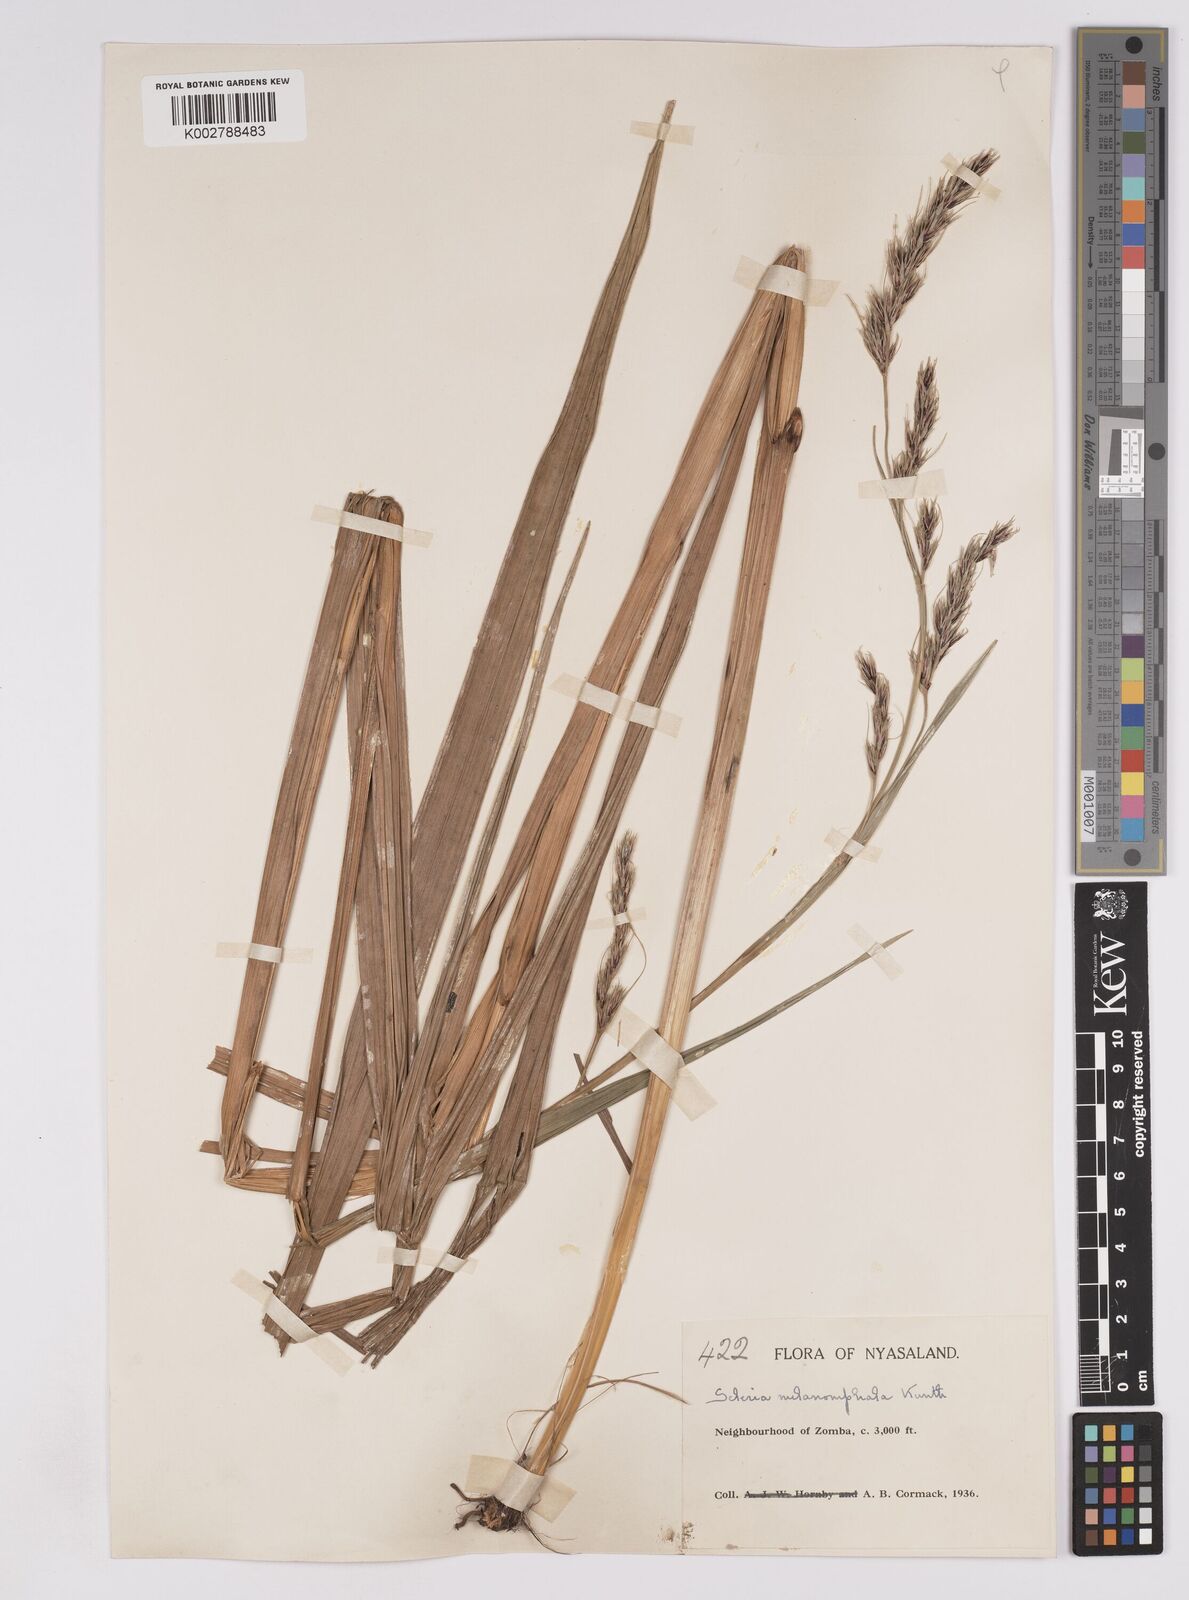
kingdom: Plantae
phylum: Tracheophyta
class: Liliopsida
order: Poales
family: Cyperaceae
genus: Scleria
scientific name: Scleria melanomphala
